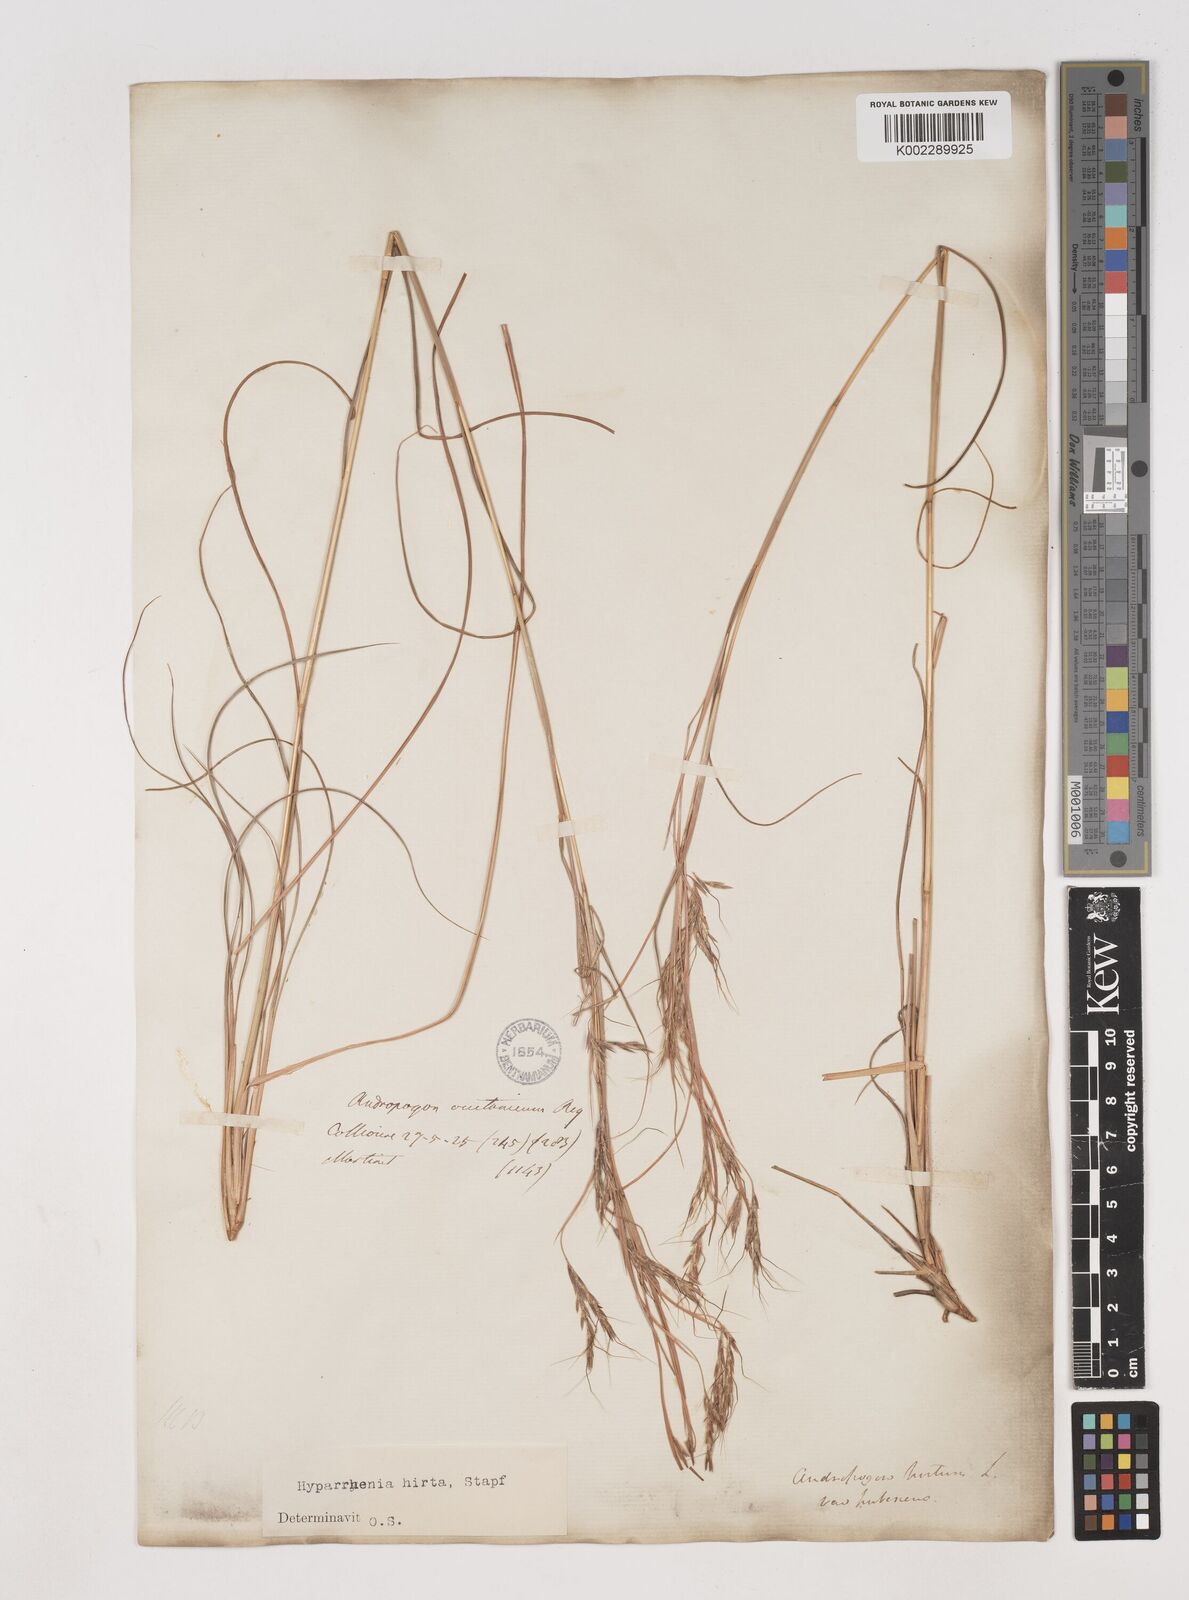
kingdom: Plantae
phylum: Tracheophyta
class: Liliopsida
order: Poales
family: Poaceae
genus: Hyparrhenia
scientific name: Hyparrhenia hirta
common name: Thatching grass
